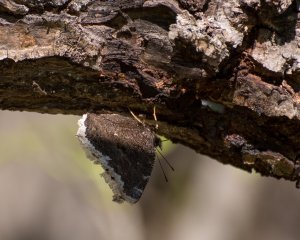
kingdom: Animalia
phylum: Arthropoda
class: Insecta
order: Lepidoptera
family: Nymphalidae
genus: Nymphalis
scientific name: Nymphalis antiopa
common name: Mourning Cloak
